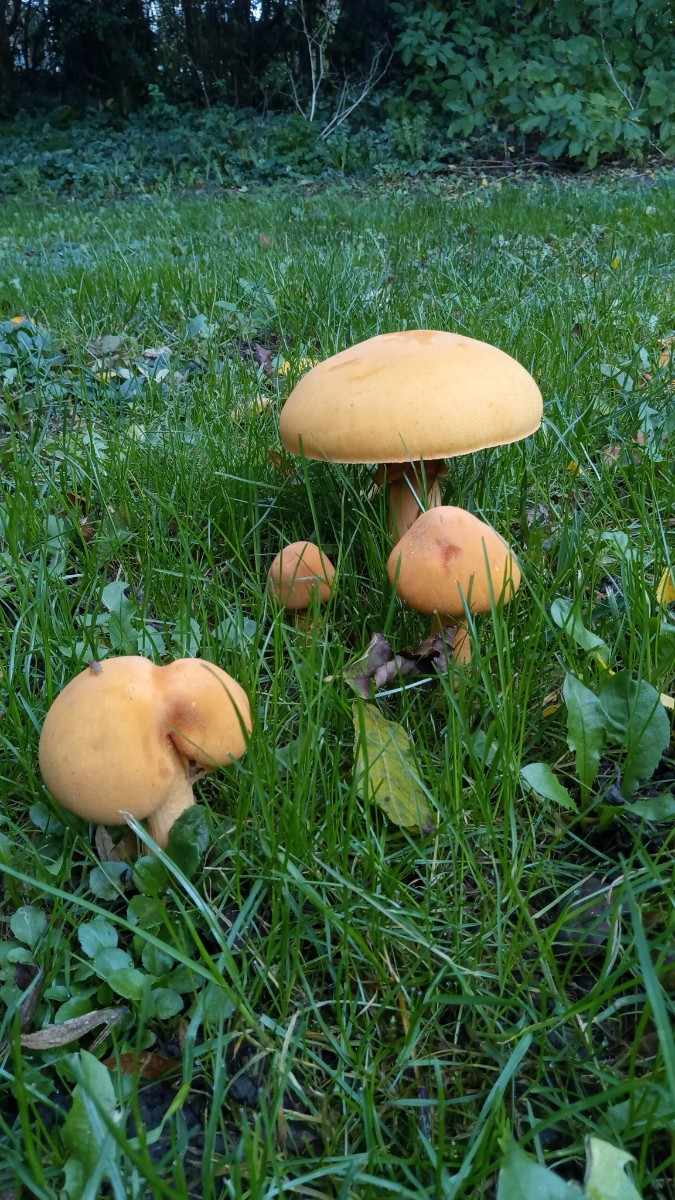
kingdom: Fungi
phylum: Basidiomycota
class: Agaricomycetes
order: Agaricales
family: Tricholomataceae
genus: Phaeolepiota
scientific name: Phaeolepiota aurea
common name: gyldenhat
